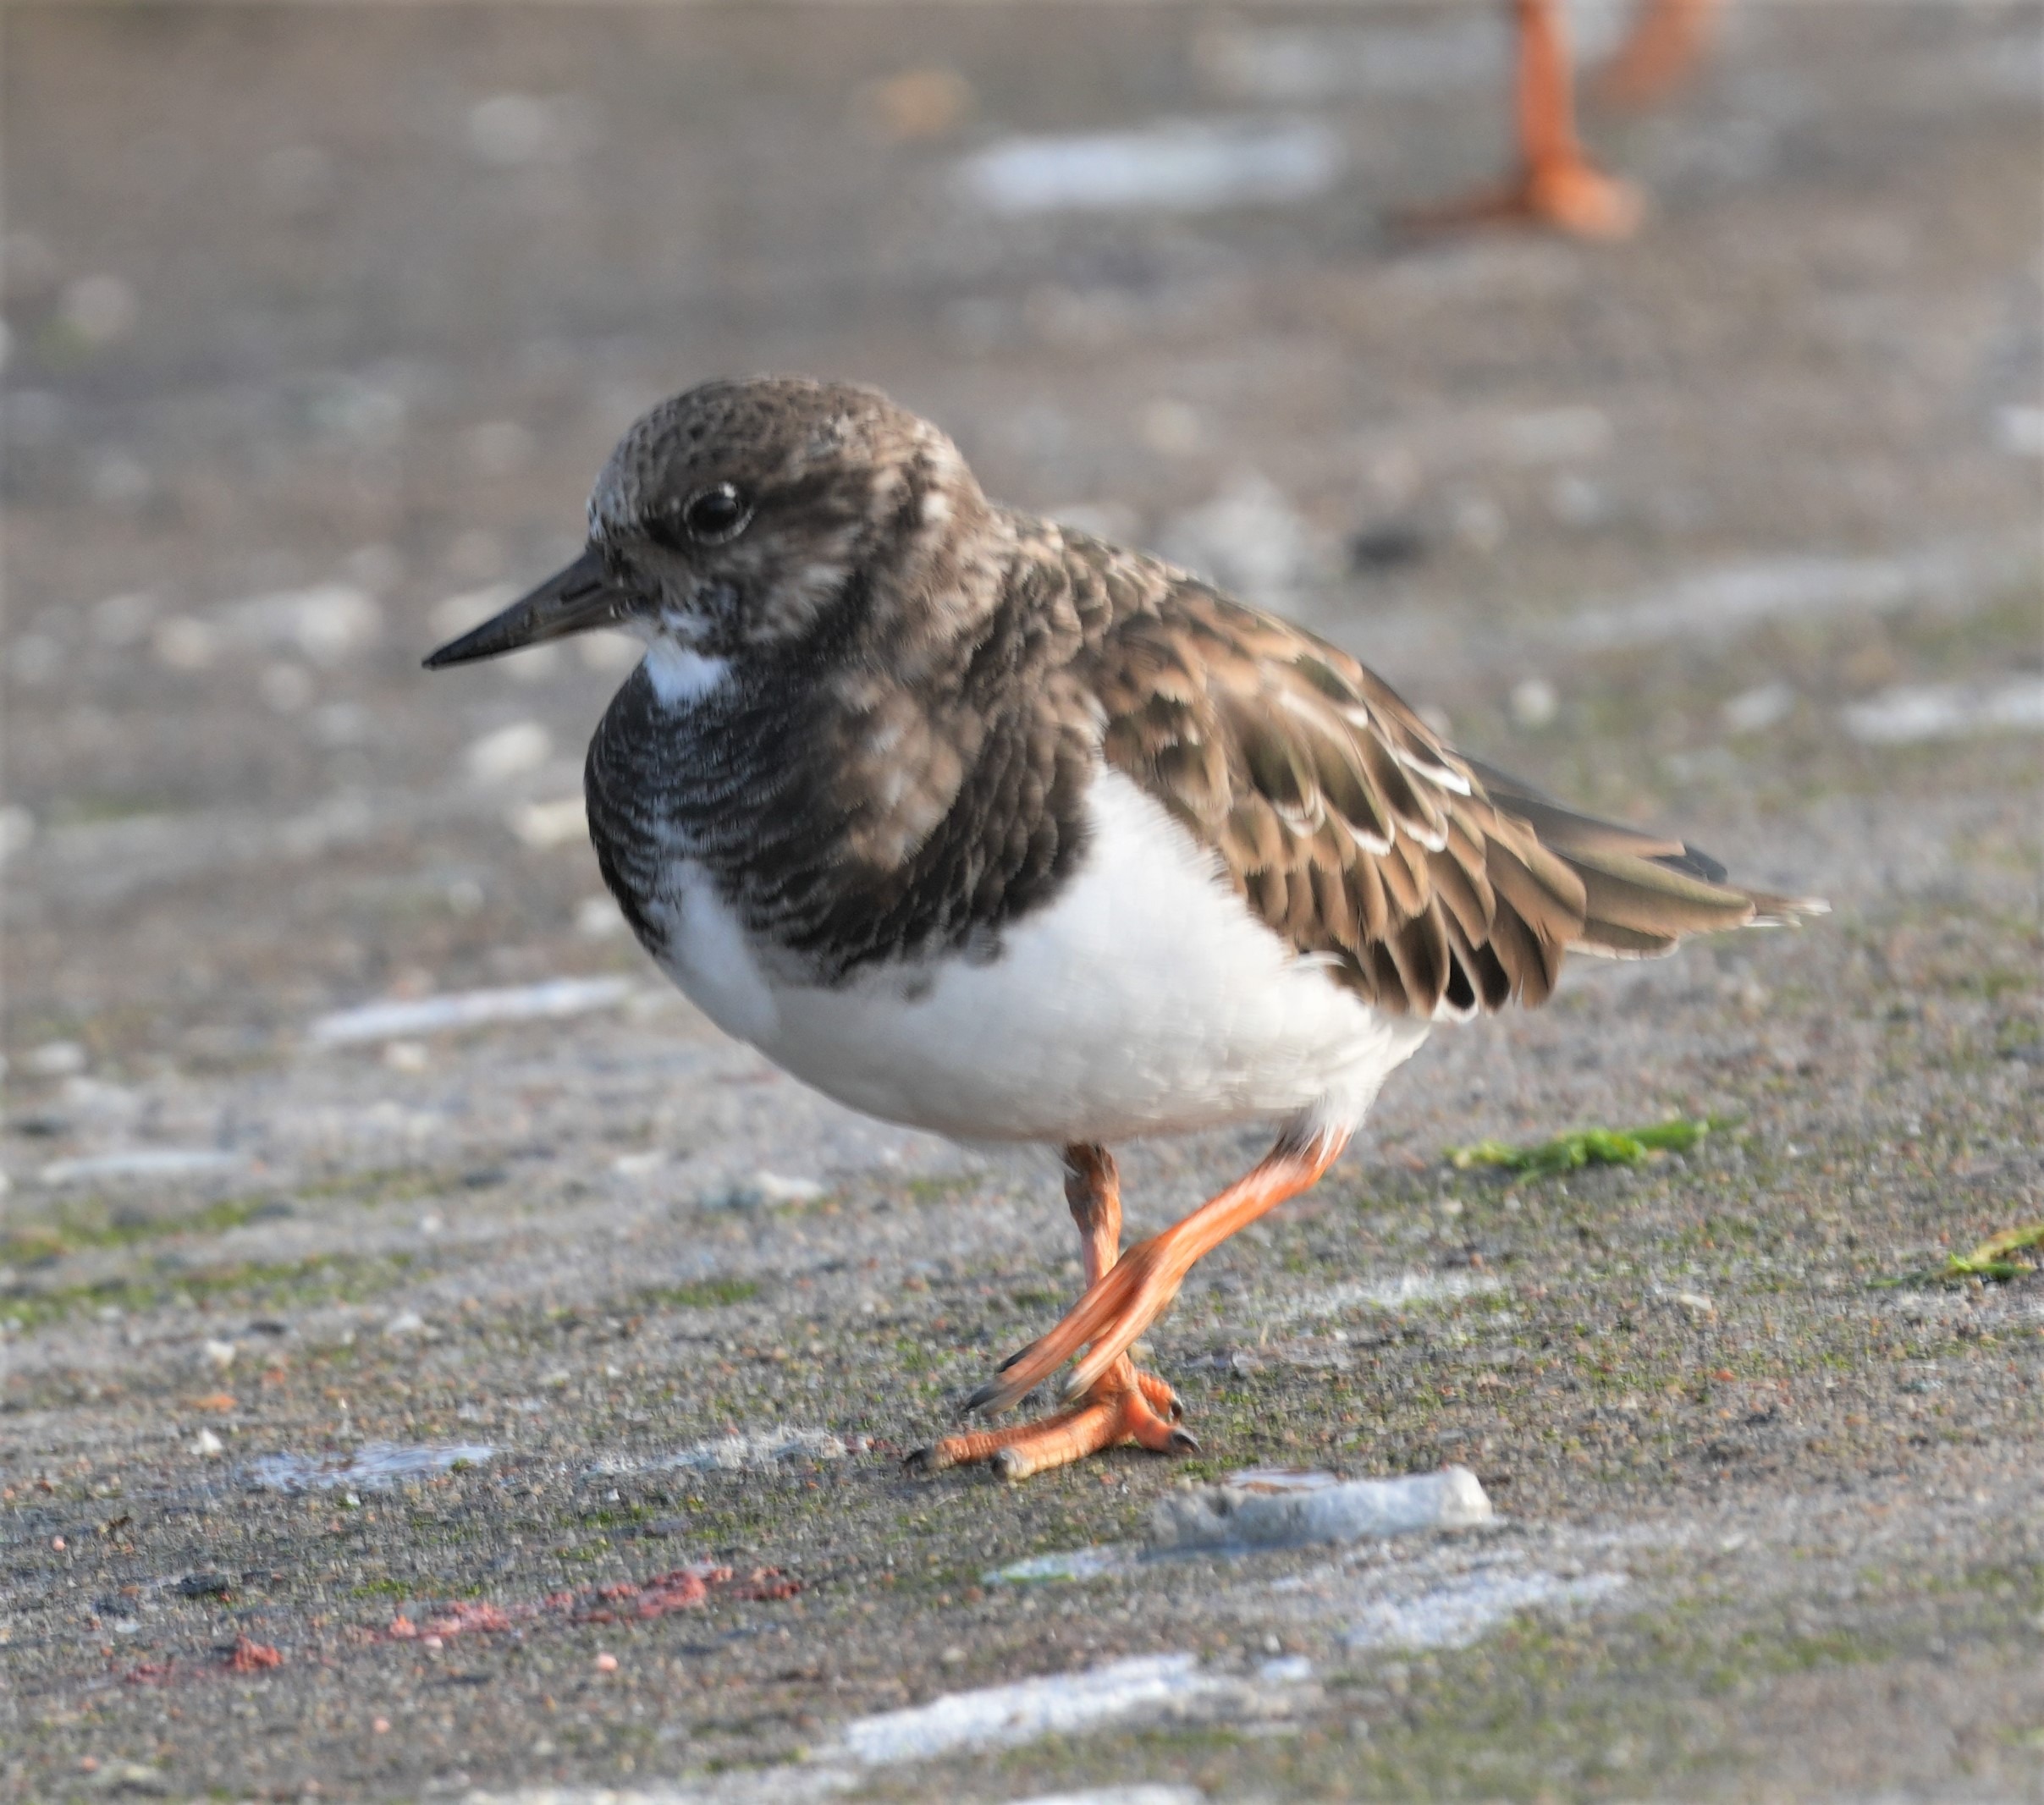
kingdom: Animalia
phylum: Chordata
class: Aves
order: Charadriiformes
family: Scolopacidae
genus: Arenaria
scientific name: Arenaria interpres
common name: Stenvender
